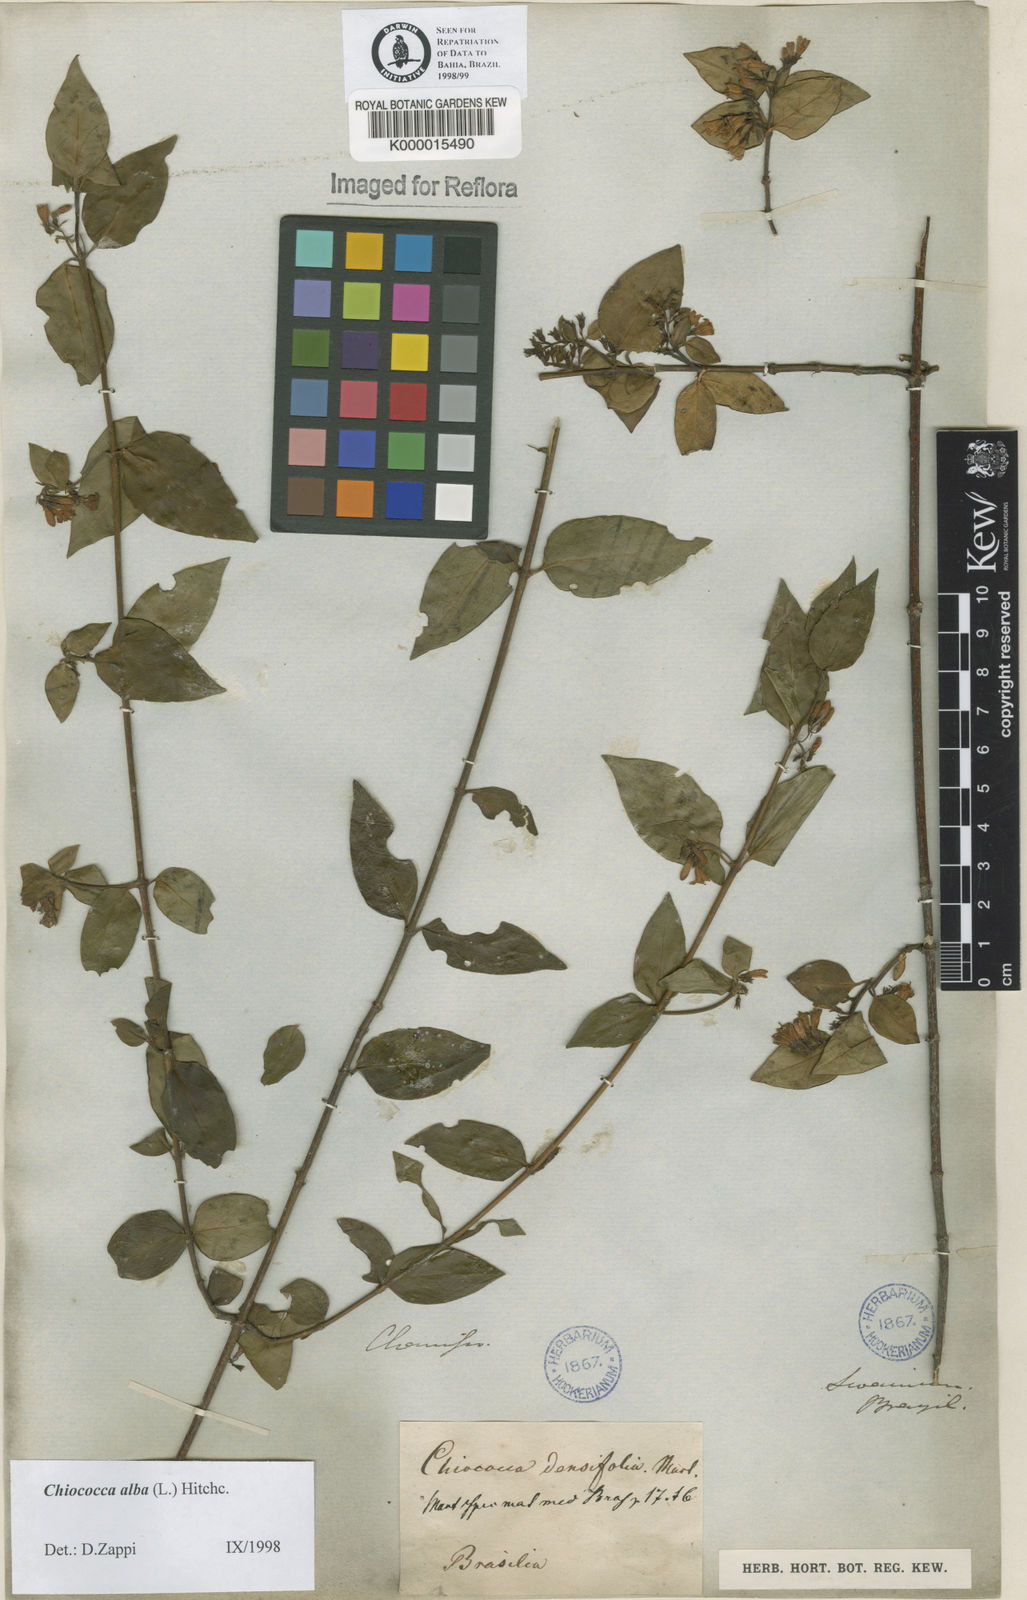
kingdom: Plantae
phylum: Tracheophyta
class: Magnoliopsida
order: Gentianales
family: Rubiaceae
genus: Chiococca
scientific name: Chiococca alba
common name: Snowberry
